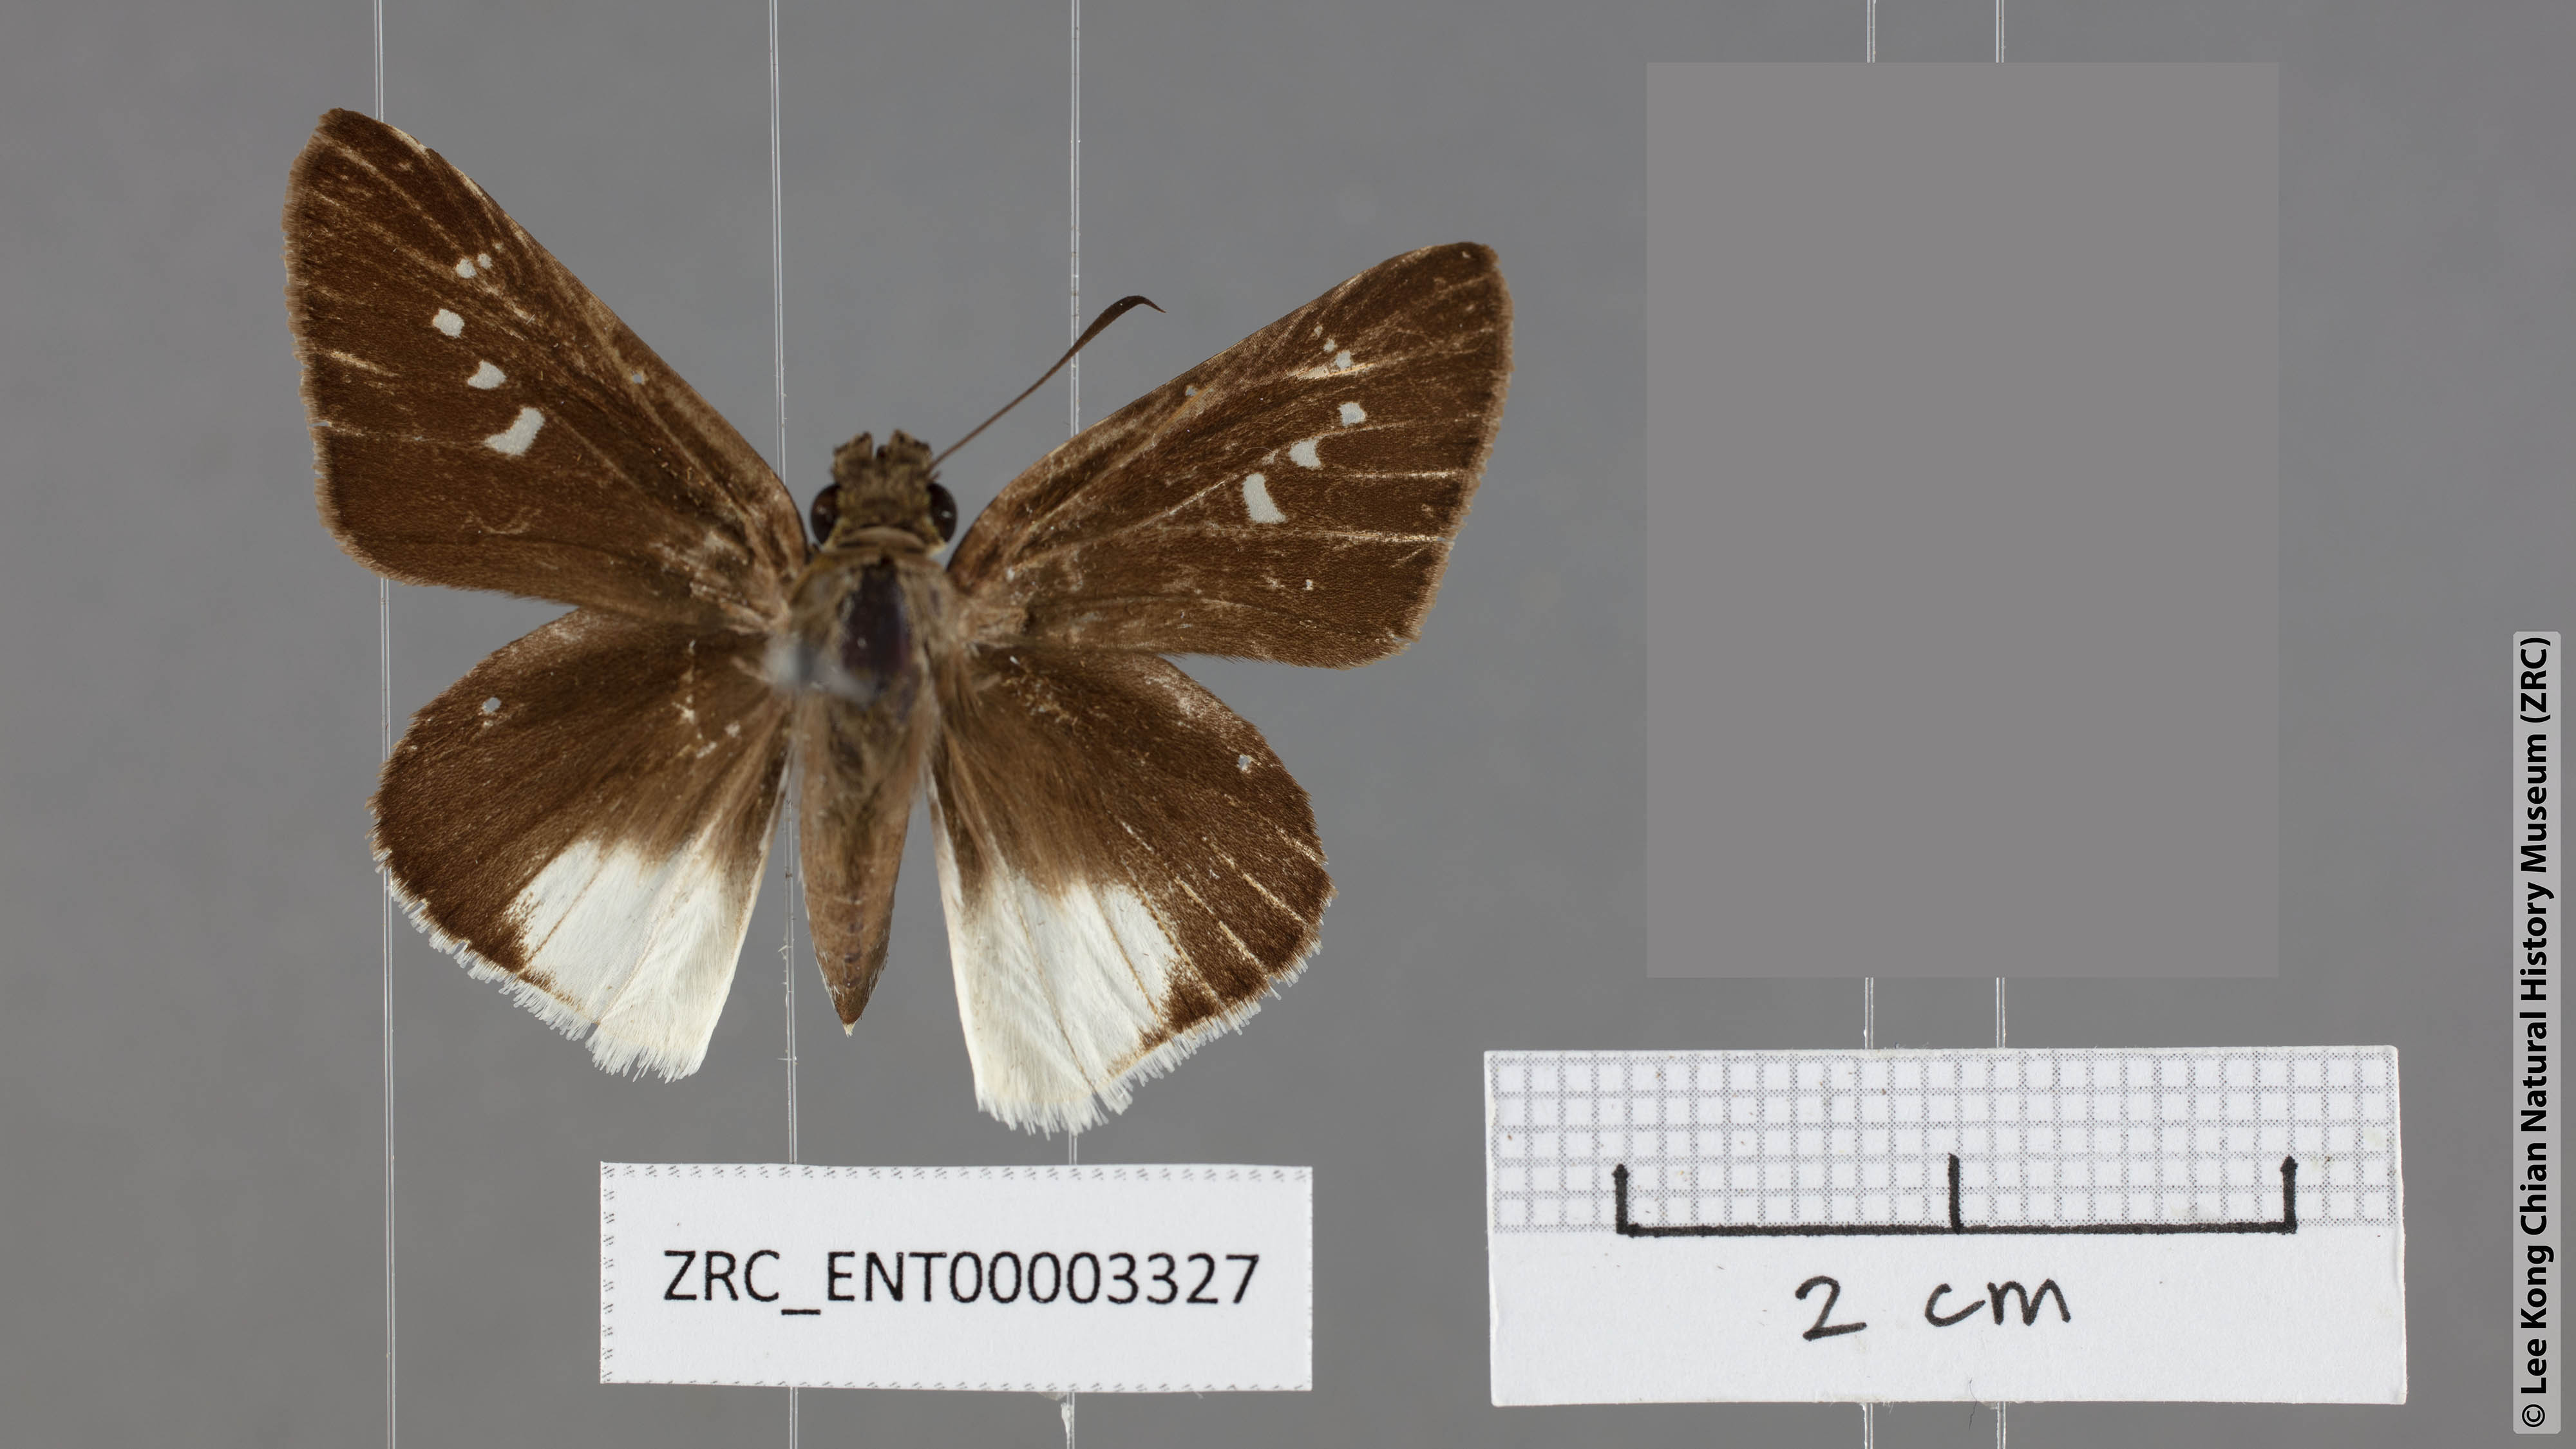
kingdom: Animalia
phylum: Arthropoda
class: Insecta
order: Lepidoptera
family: Hesperiidae
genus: Iton
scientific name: Iton semamora
